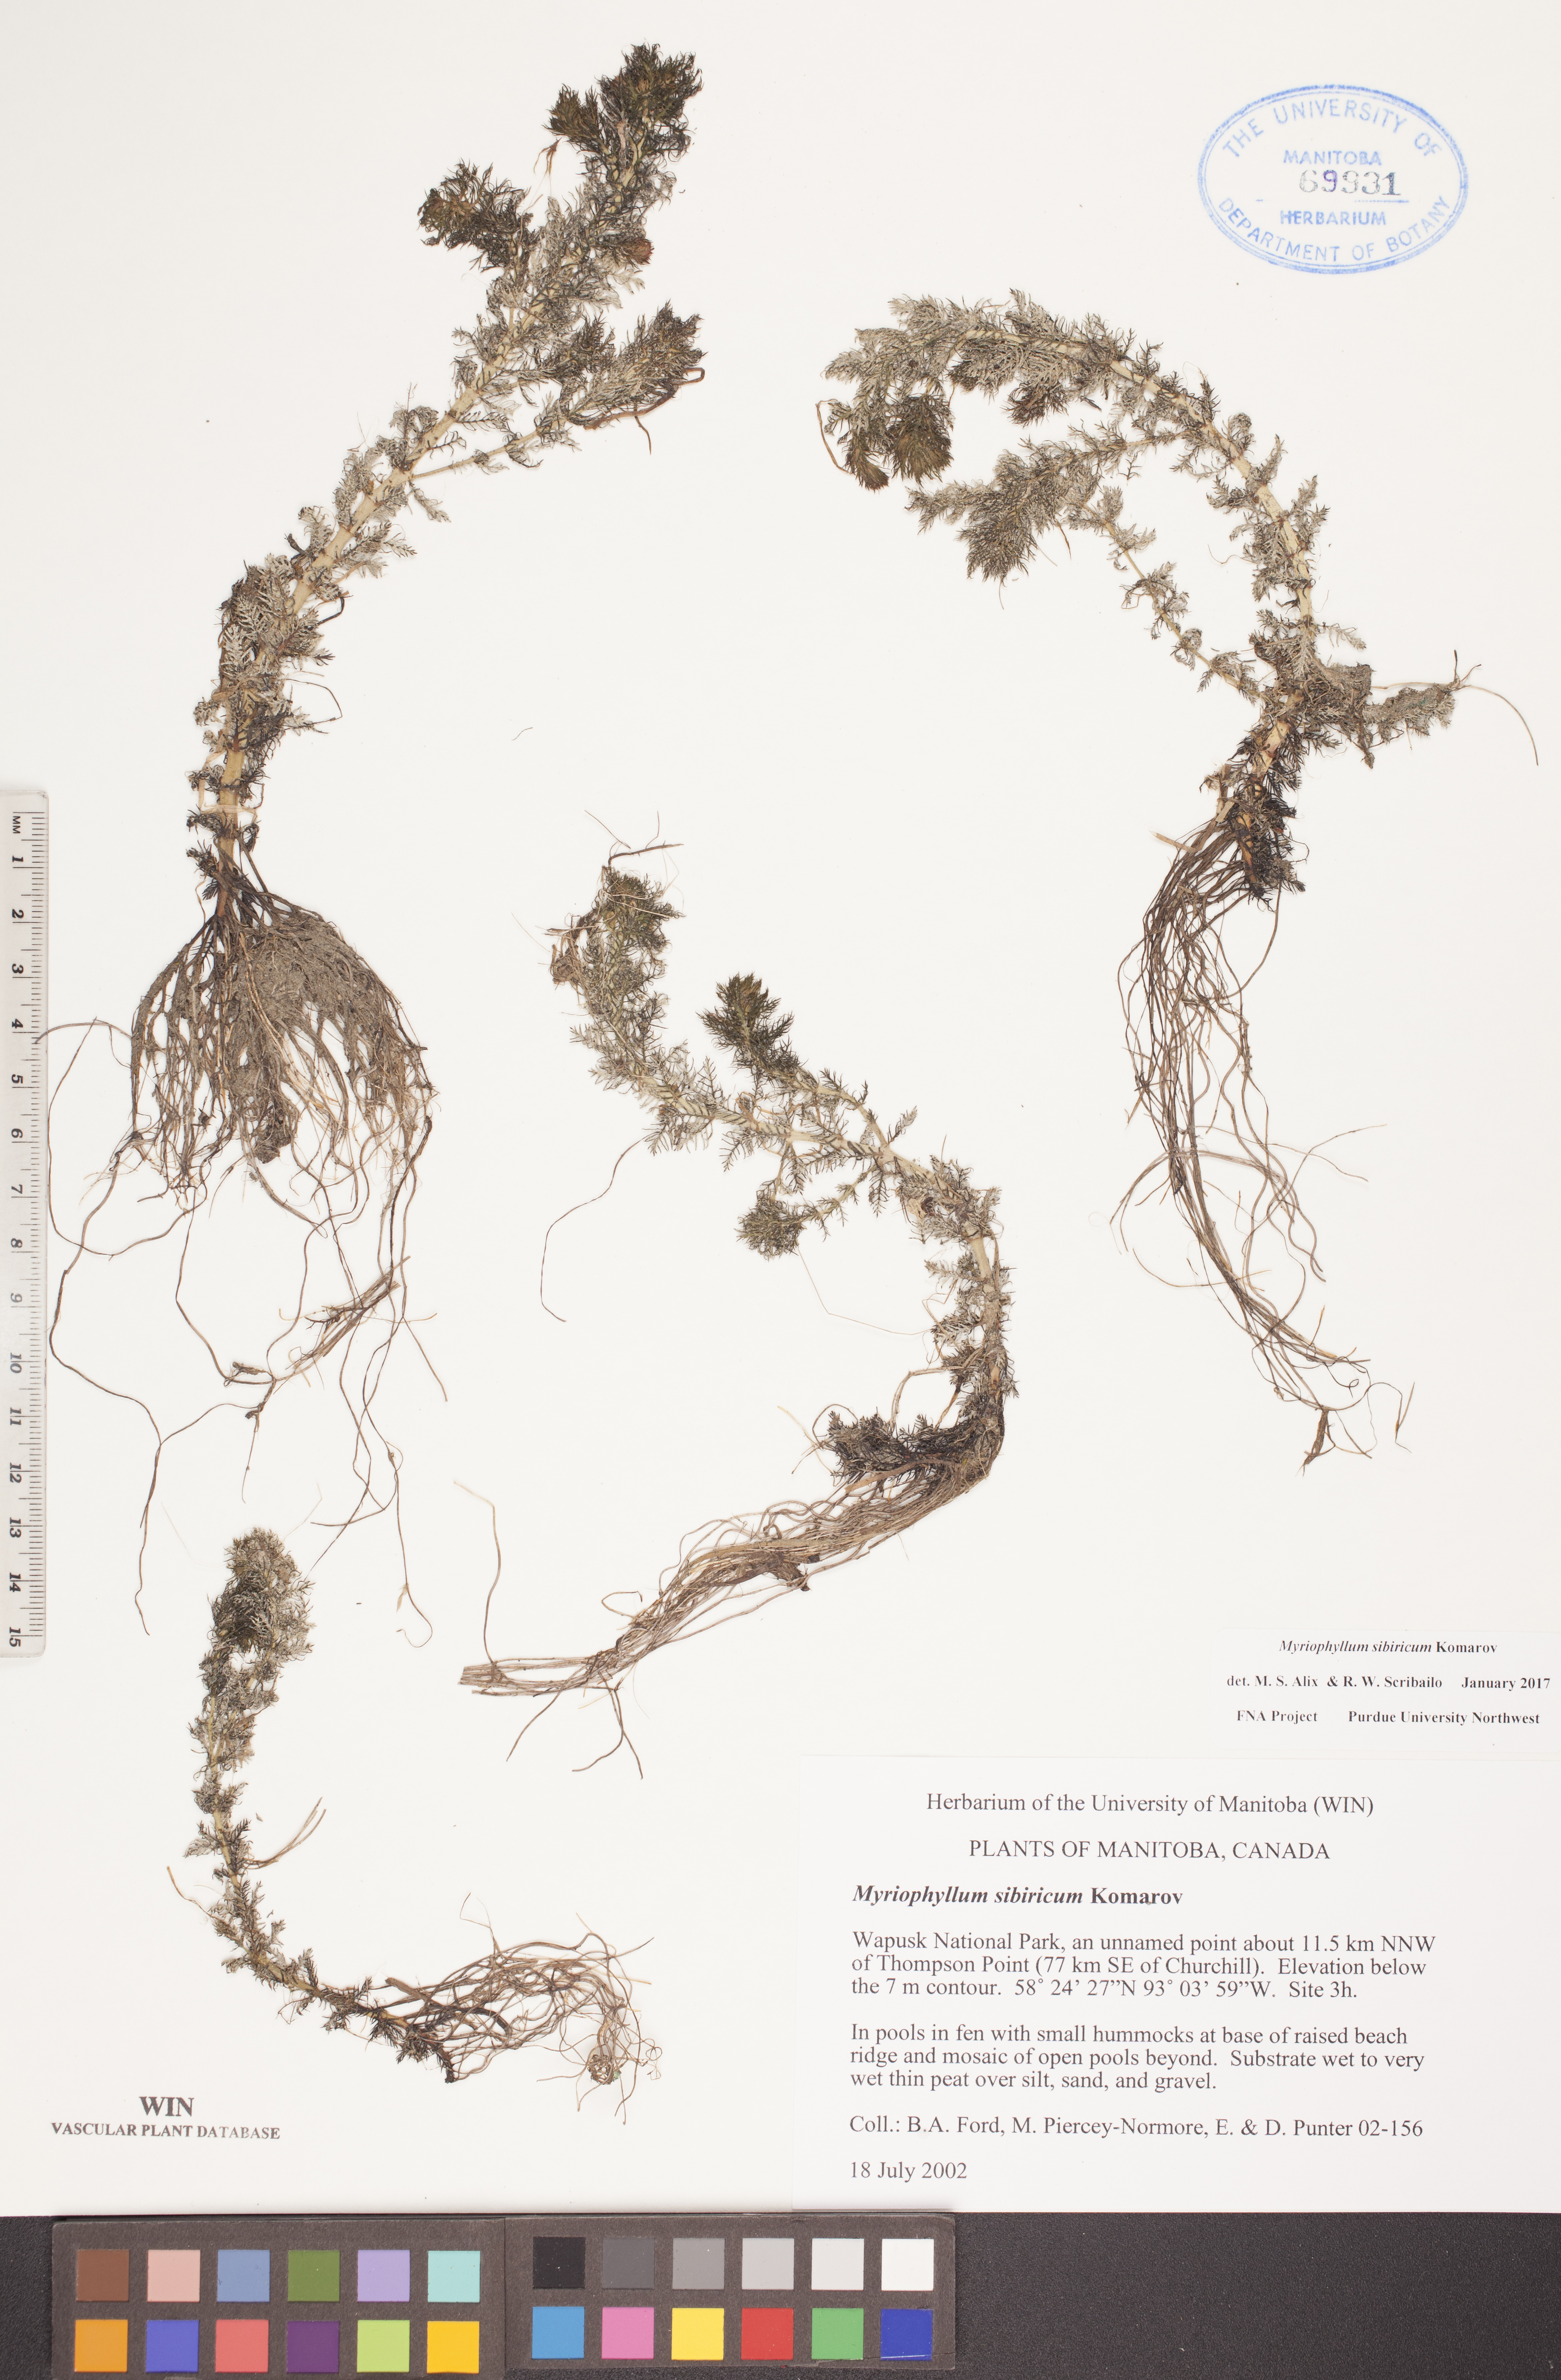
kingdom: Plantae
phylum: Tracheophyta
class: Magnoliopsida
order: Saxifragales
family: Haloragaceae
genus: Myriophyllum
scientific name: Myriophyllum sibiricum
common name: Siberian water-milfoil
